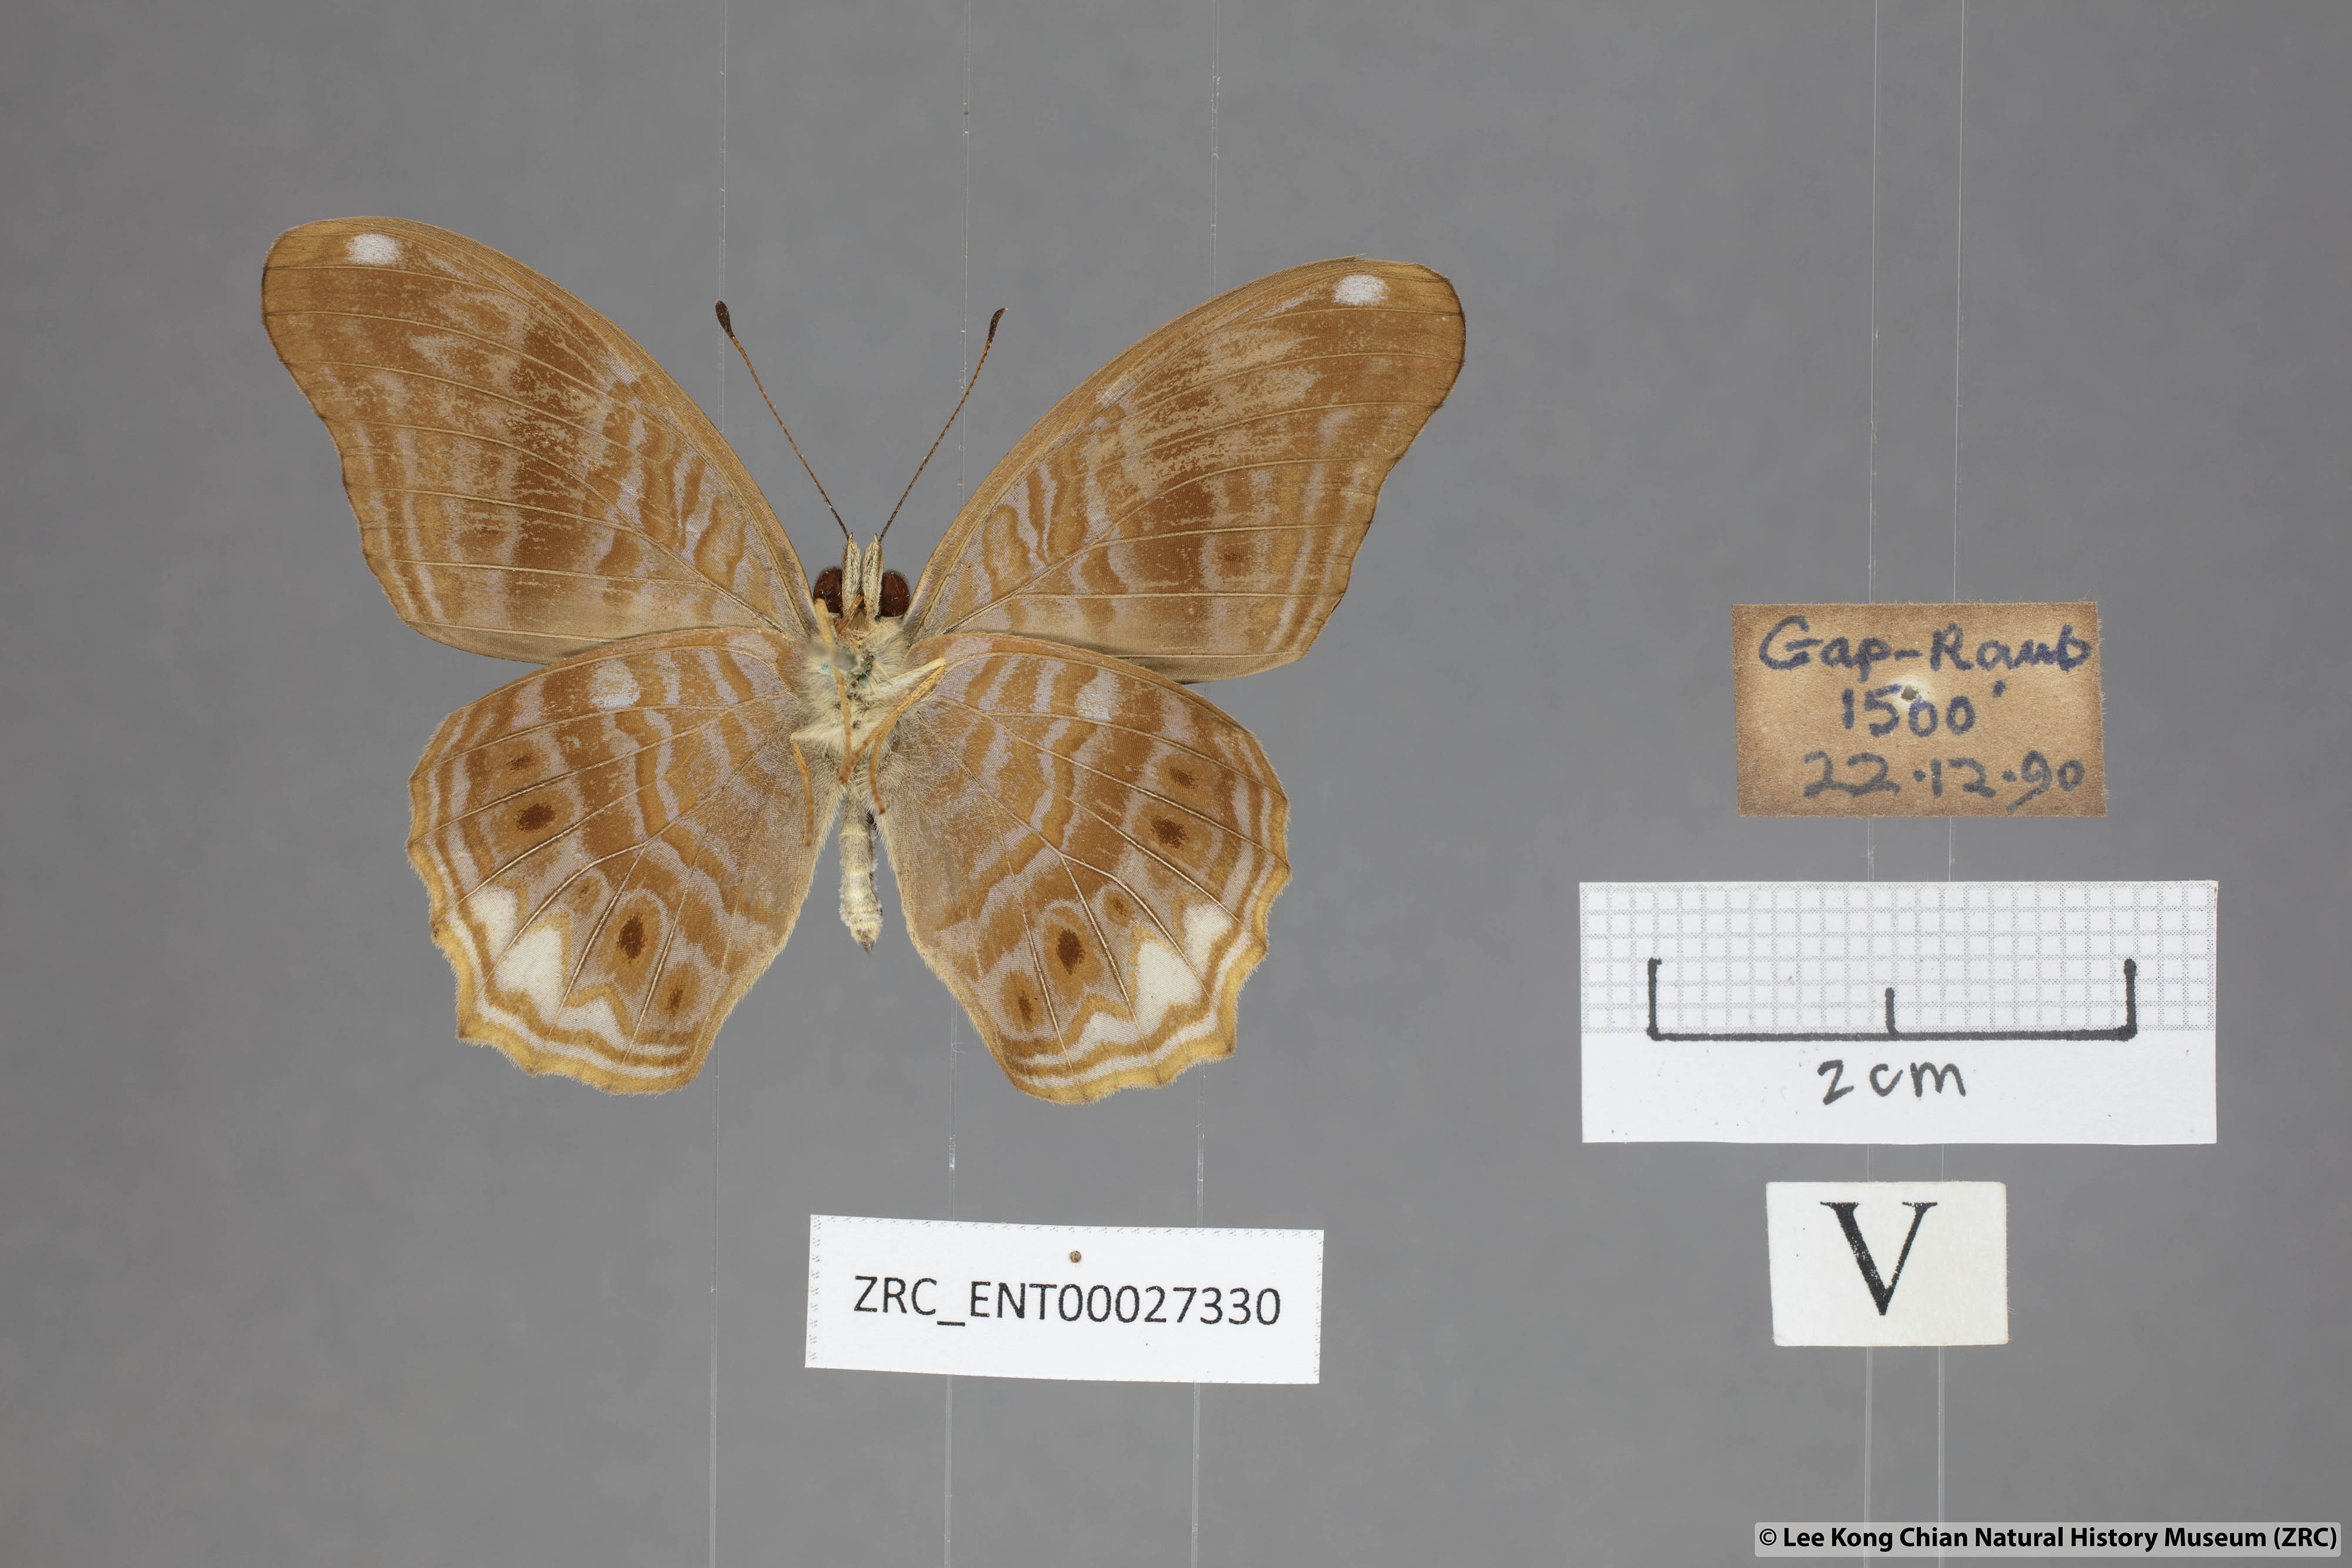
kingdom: Animalia
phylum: Arthropoda
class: Insecta
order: Lepidoptera
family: Nymphalidae
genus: Terinos
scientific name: Terinos terpander
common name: Royal assyrian
